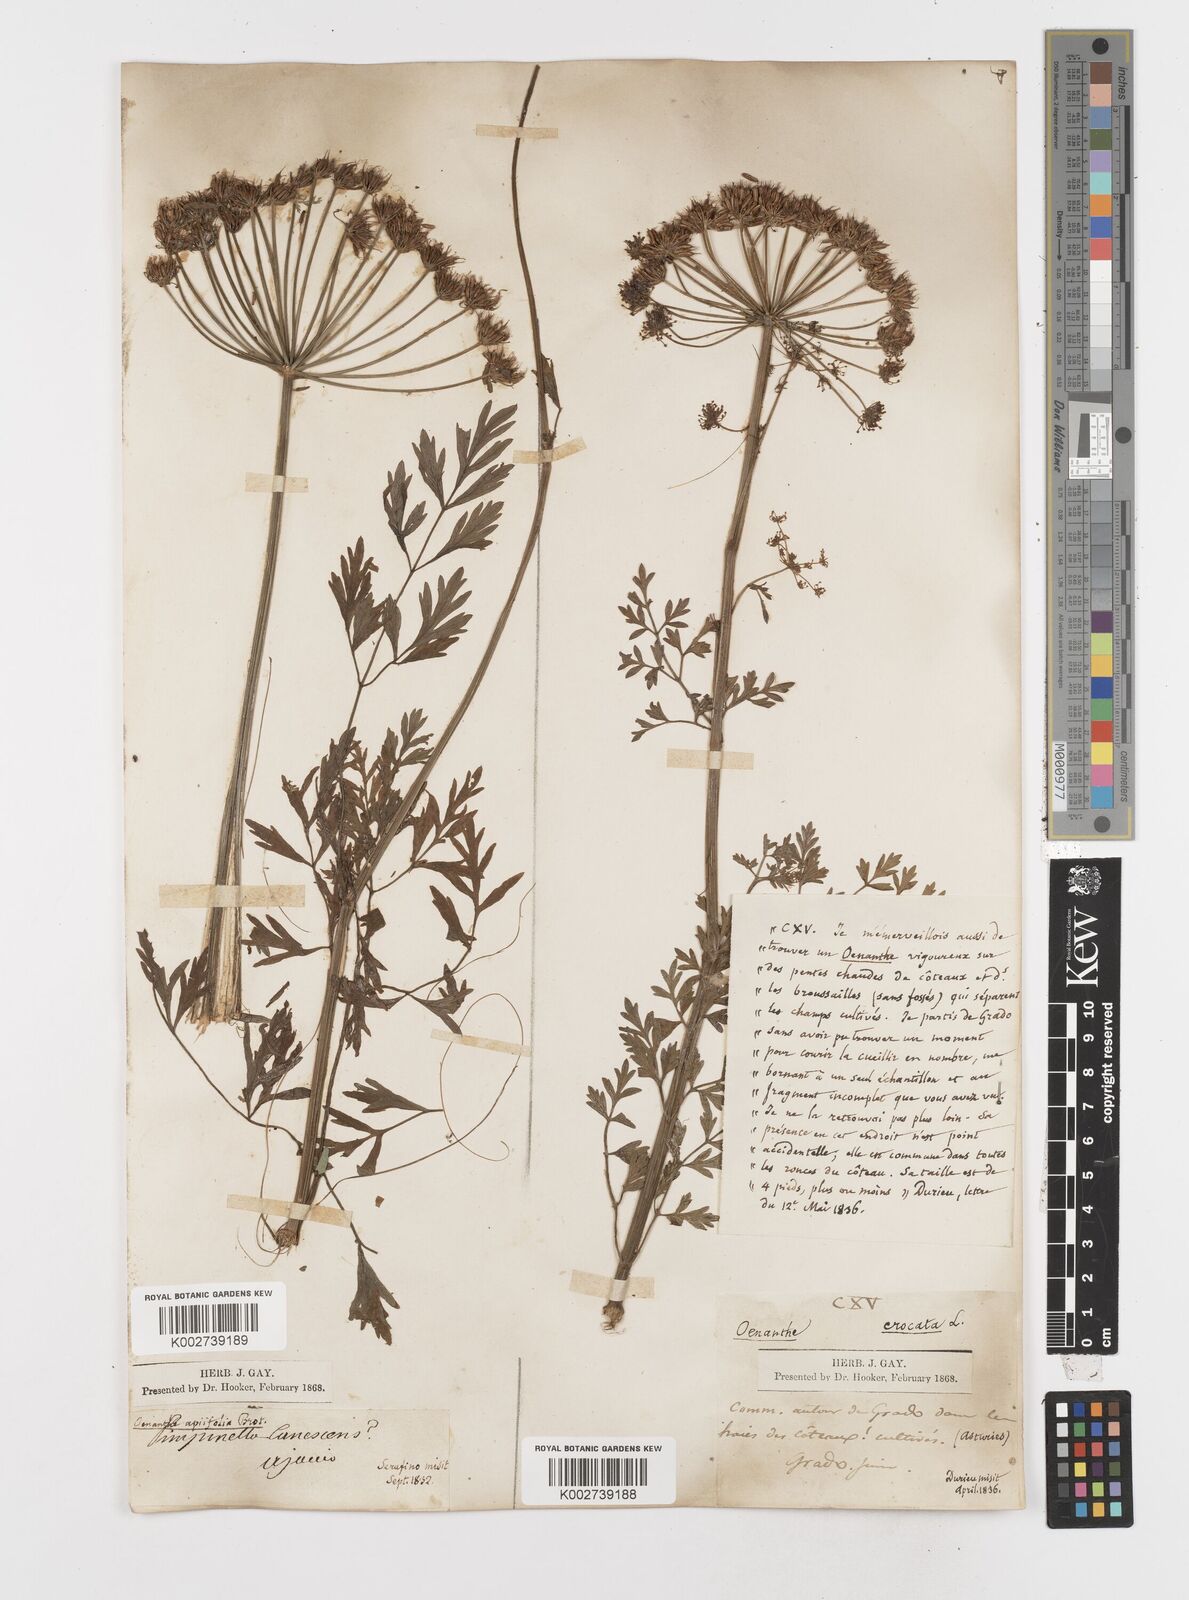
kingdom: Plantae
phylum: Tracheophyta
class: Magnoliopsida
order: Apiales
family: Apiaceae
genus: Oenanthe
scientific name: Oenanthe crocata
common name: Hemlock water-dropwort
